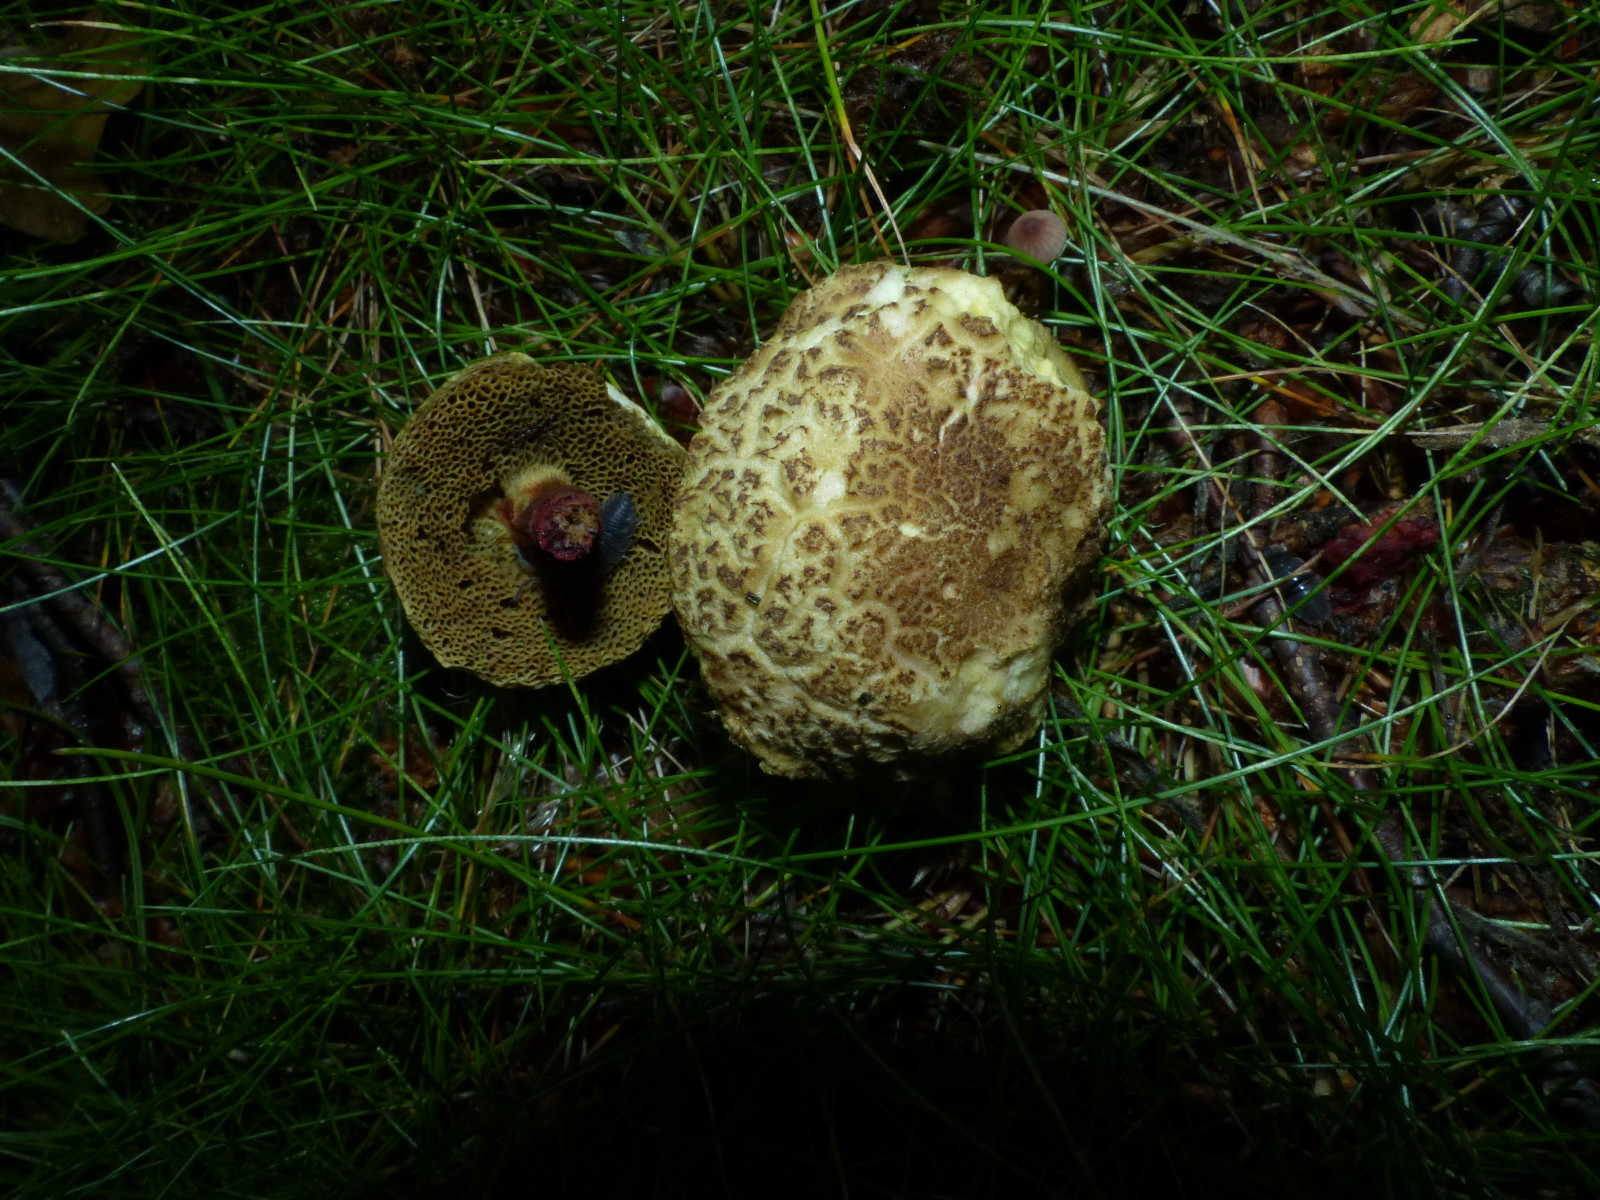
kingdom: Fungi
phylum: Basidiomycota
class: Agaricomycetes
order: Boletales
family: Boletaceae
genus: Xerocomellus
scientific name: Xerocomellus
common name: dværgrørhat
